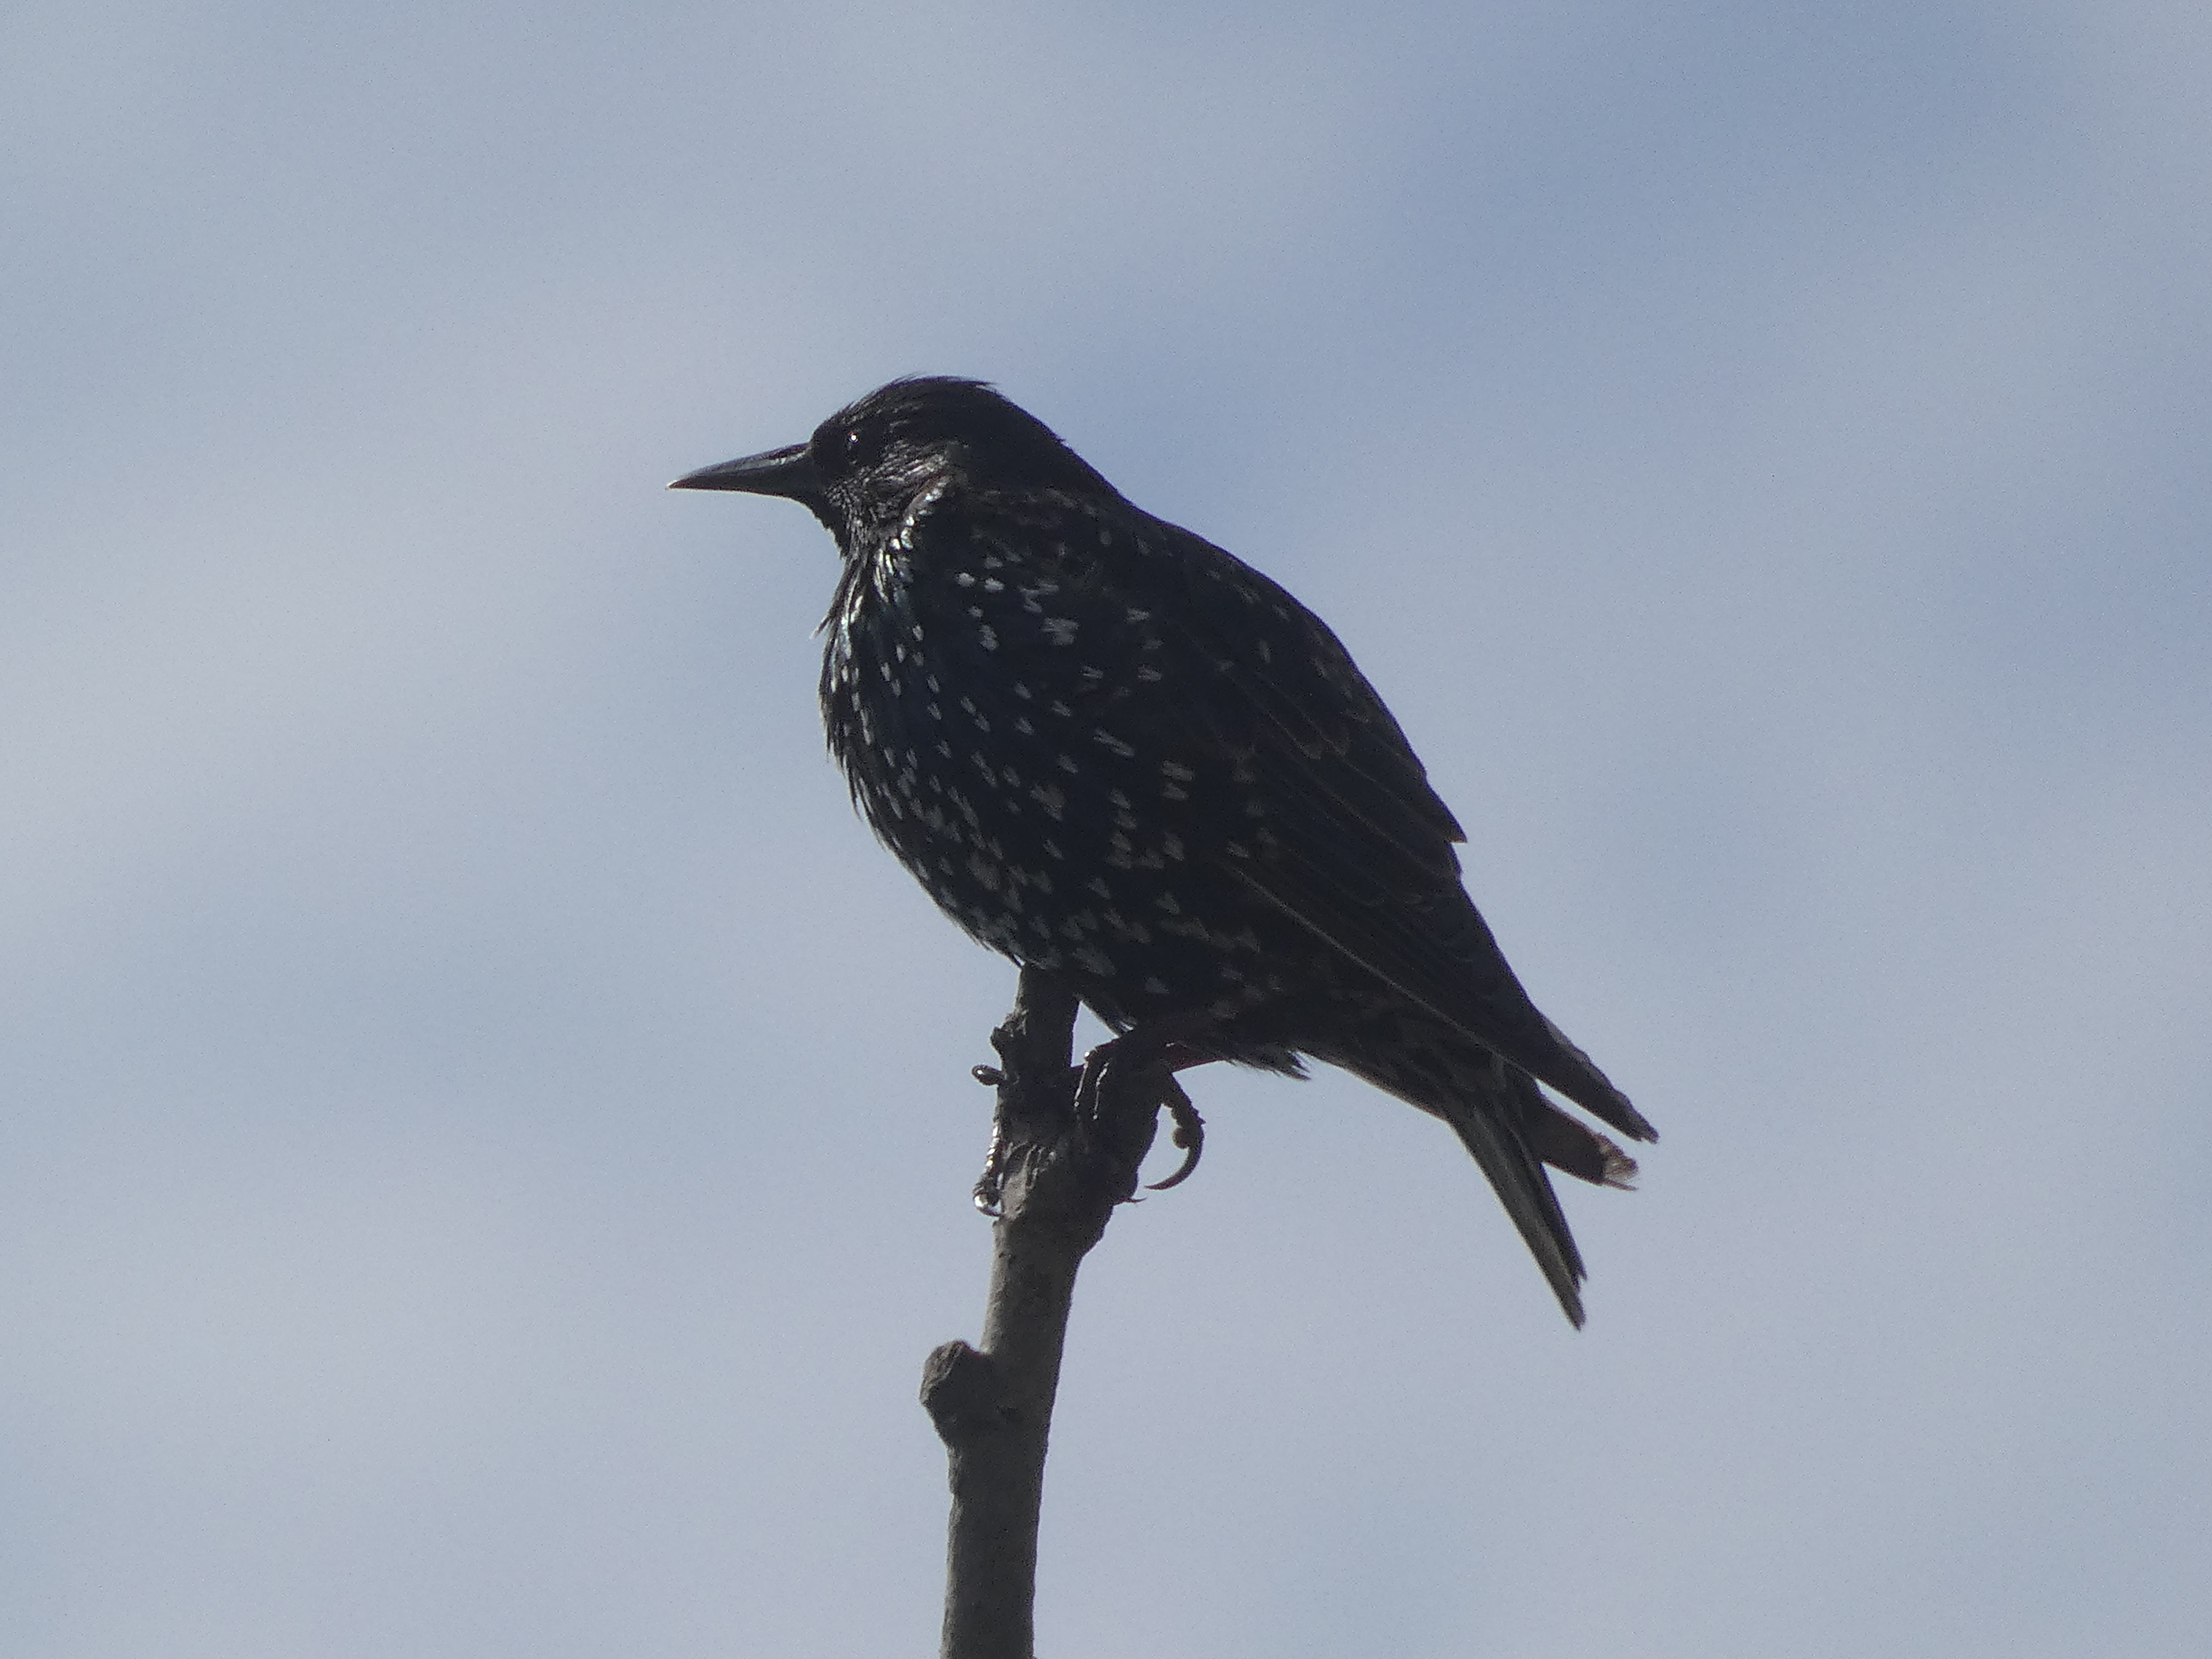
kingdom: Animalia
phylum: Chordata
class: Aves
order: Passeriformes
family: Sturnidae
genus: Sturnus
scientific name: Sturnus vulgaris
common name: Stær
